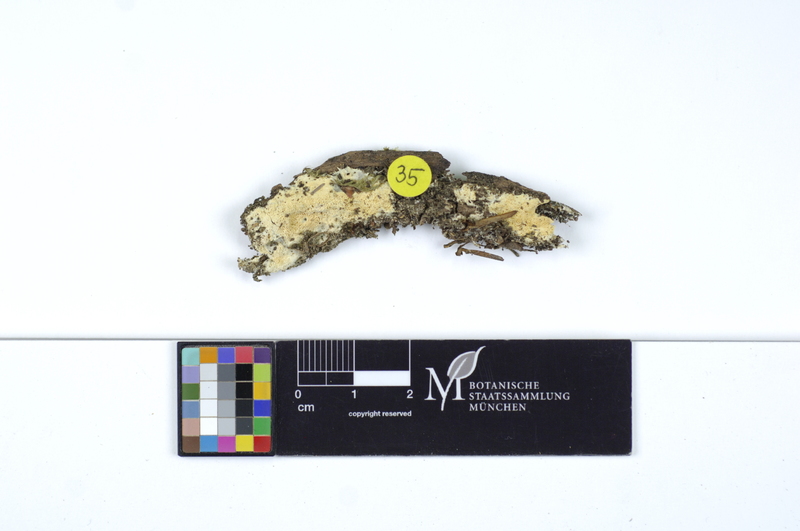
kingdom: Plantae
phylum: Tracheophyta
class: Magnoliopsida
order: Fagales
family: Fagaceae
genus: Fagus
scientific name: Fagus sylvatica
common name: Beech
